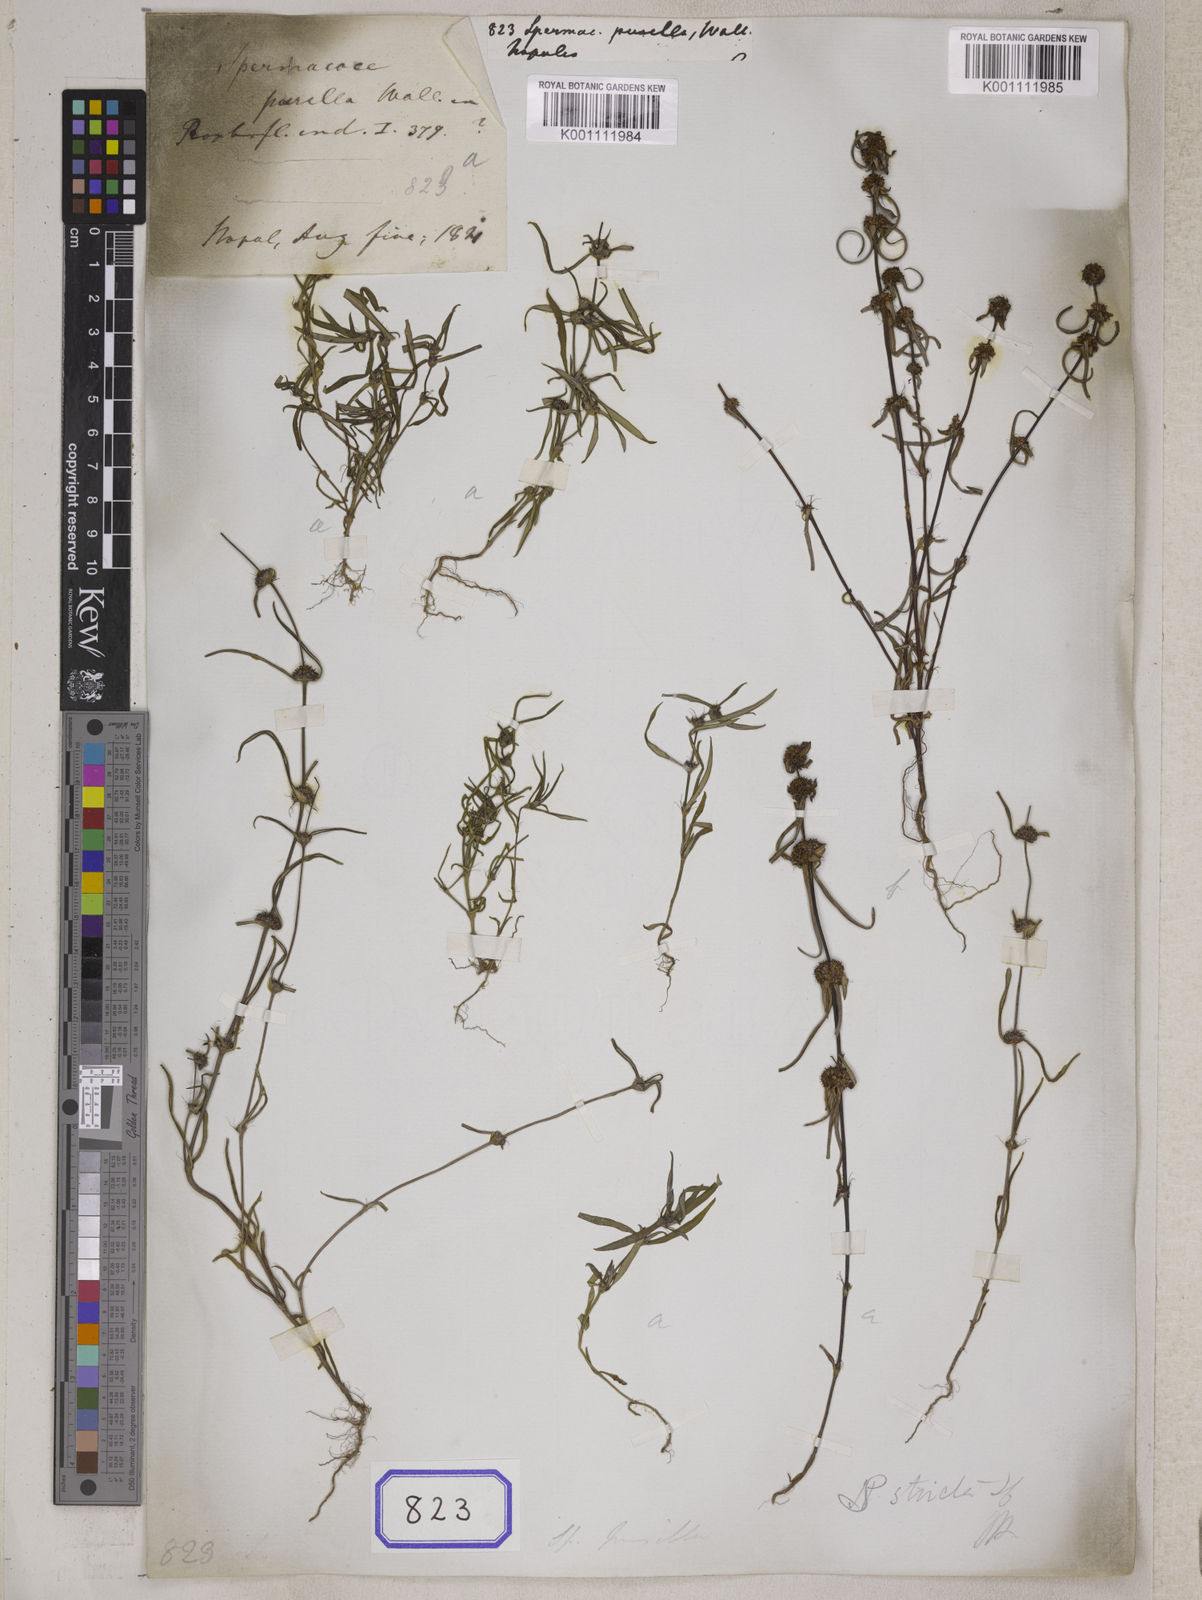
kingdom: Plantae
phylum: Tracheophyta
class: Magnoliopsida
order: Gentianales
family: Rubiaceae
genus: Spermacoce
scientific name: Spermacoce pusilla
